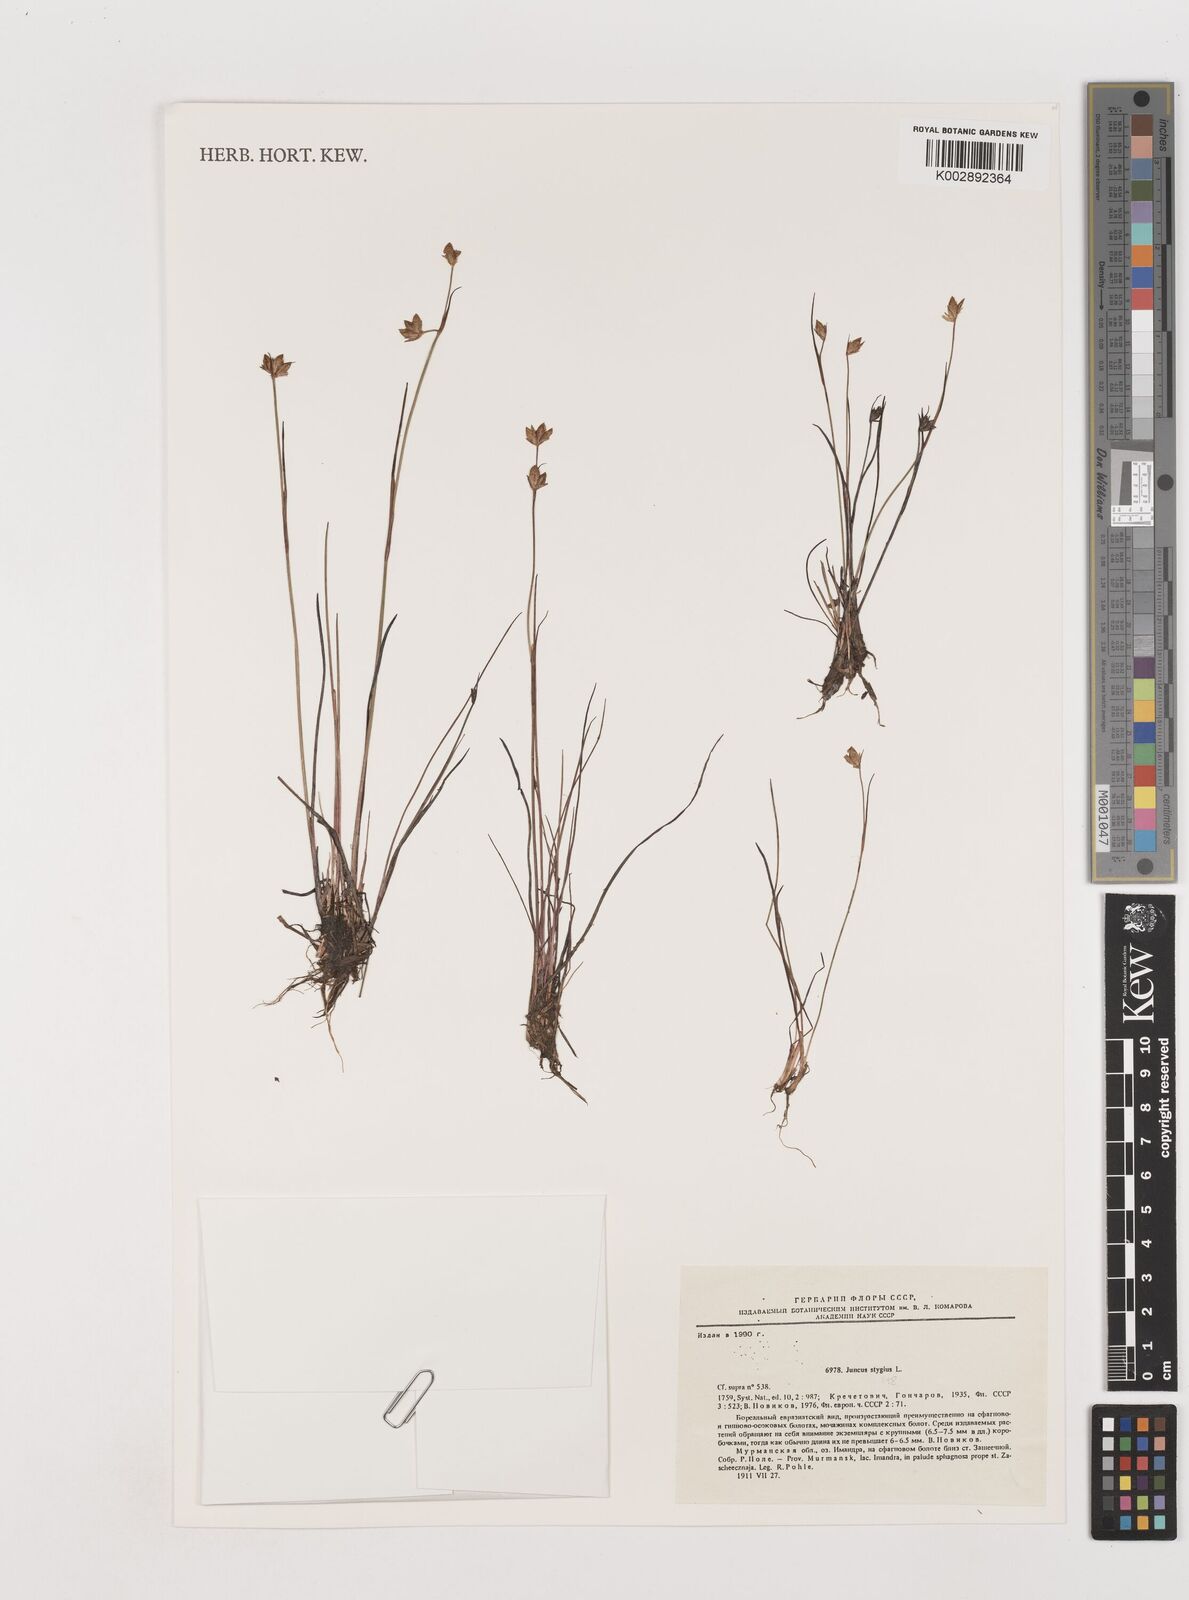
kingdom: Plantae
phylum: Tracheophyta
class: Liliopsida
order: Poales
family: Juncaceae
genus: Juncus
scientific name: Juncus stygius
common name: Bog rush
